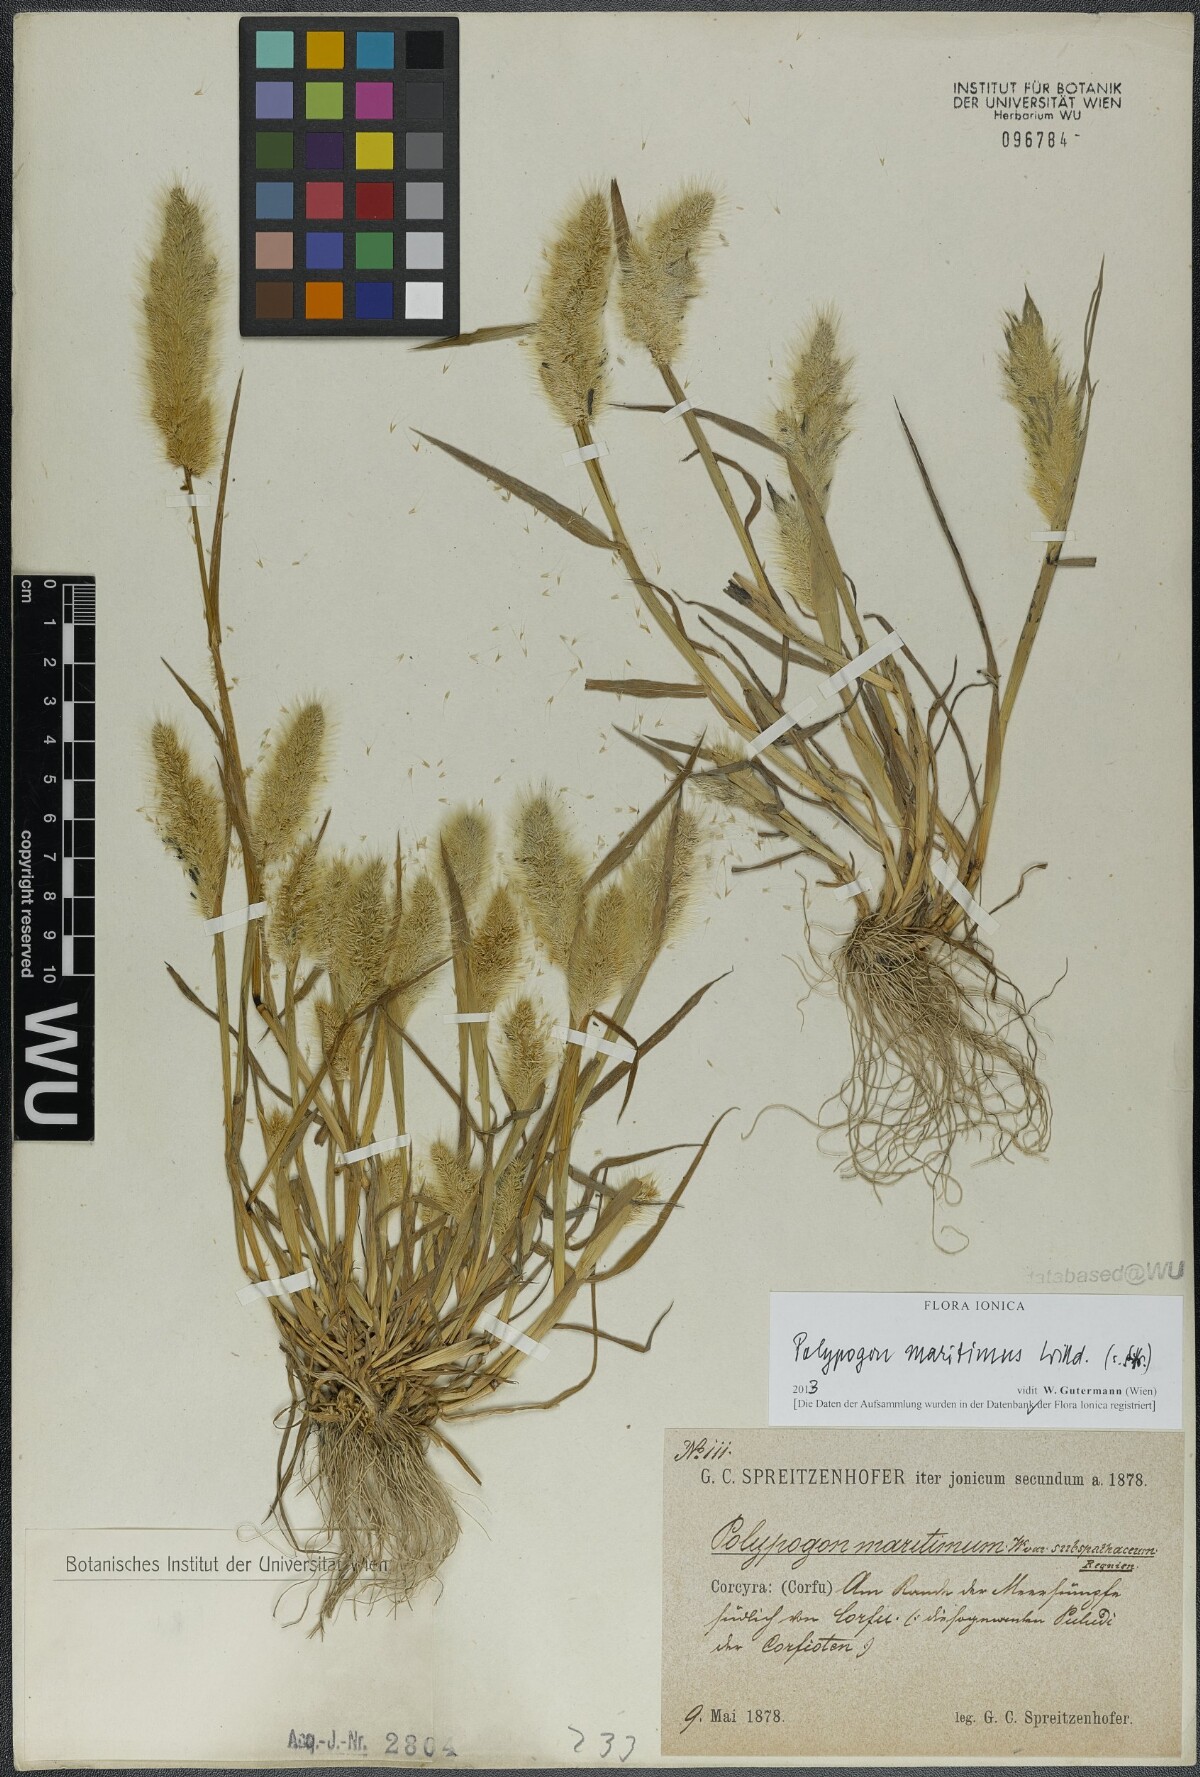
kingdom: Plantae
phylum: Tracheophyta
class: Liliopsida
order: Poales
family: Poaceae
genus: Polypogon
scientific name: Polypogon maritimus
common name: Mediterranean rabbitsfoot grass
